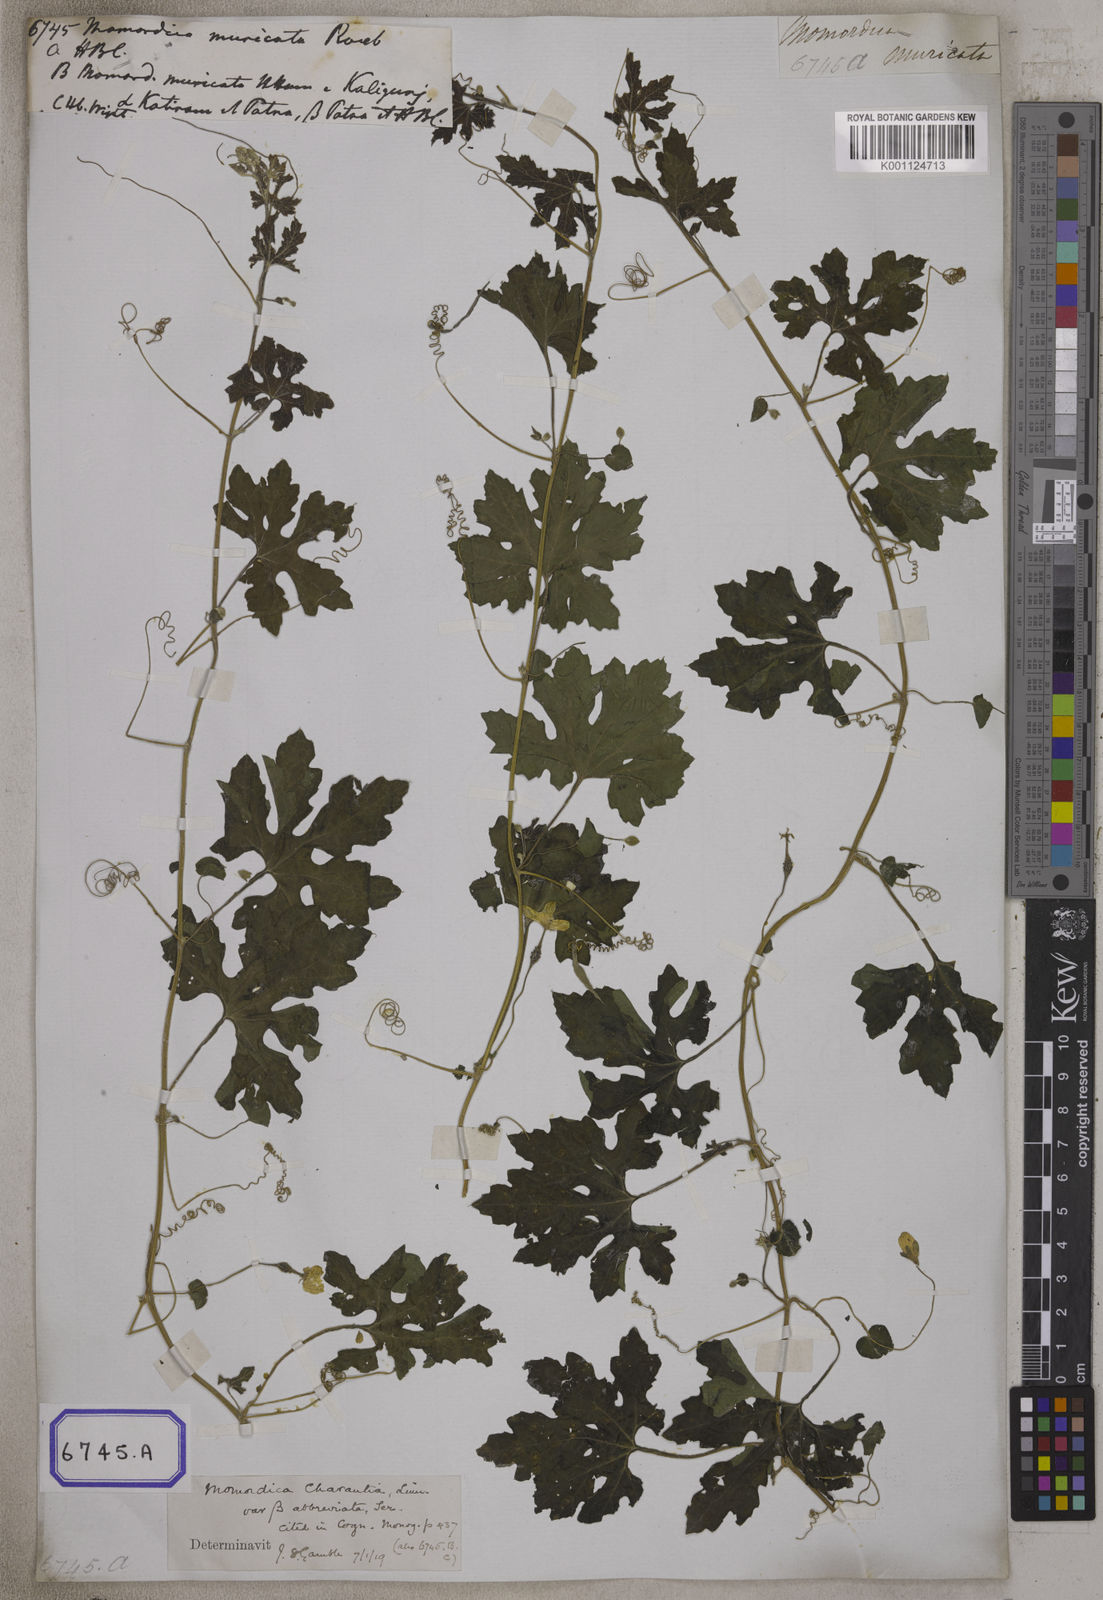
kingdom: Plantae
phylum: Tracheophyta
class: Magnoliopsida
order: Cucurbitales
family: Cucurbitaceae
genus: Momordica
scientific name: Momordica
